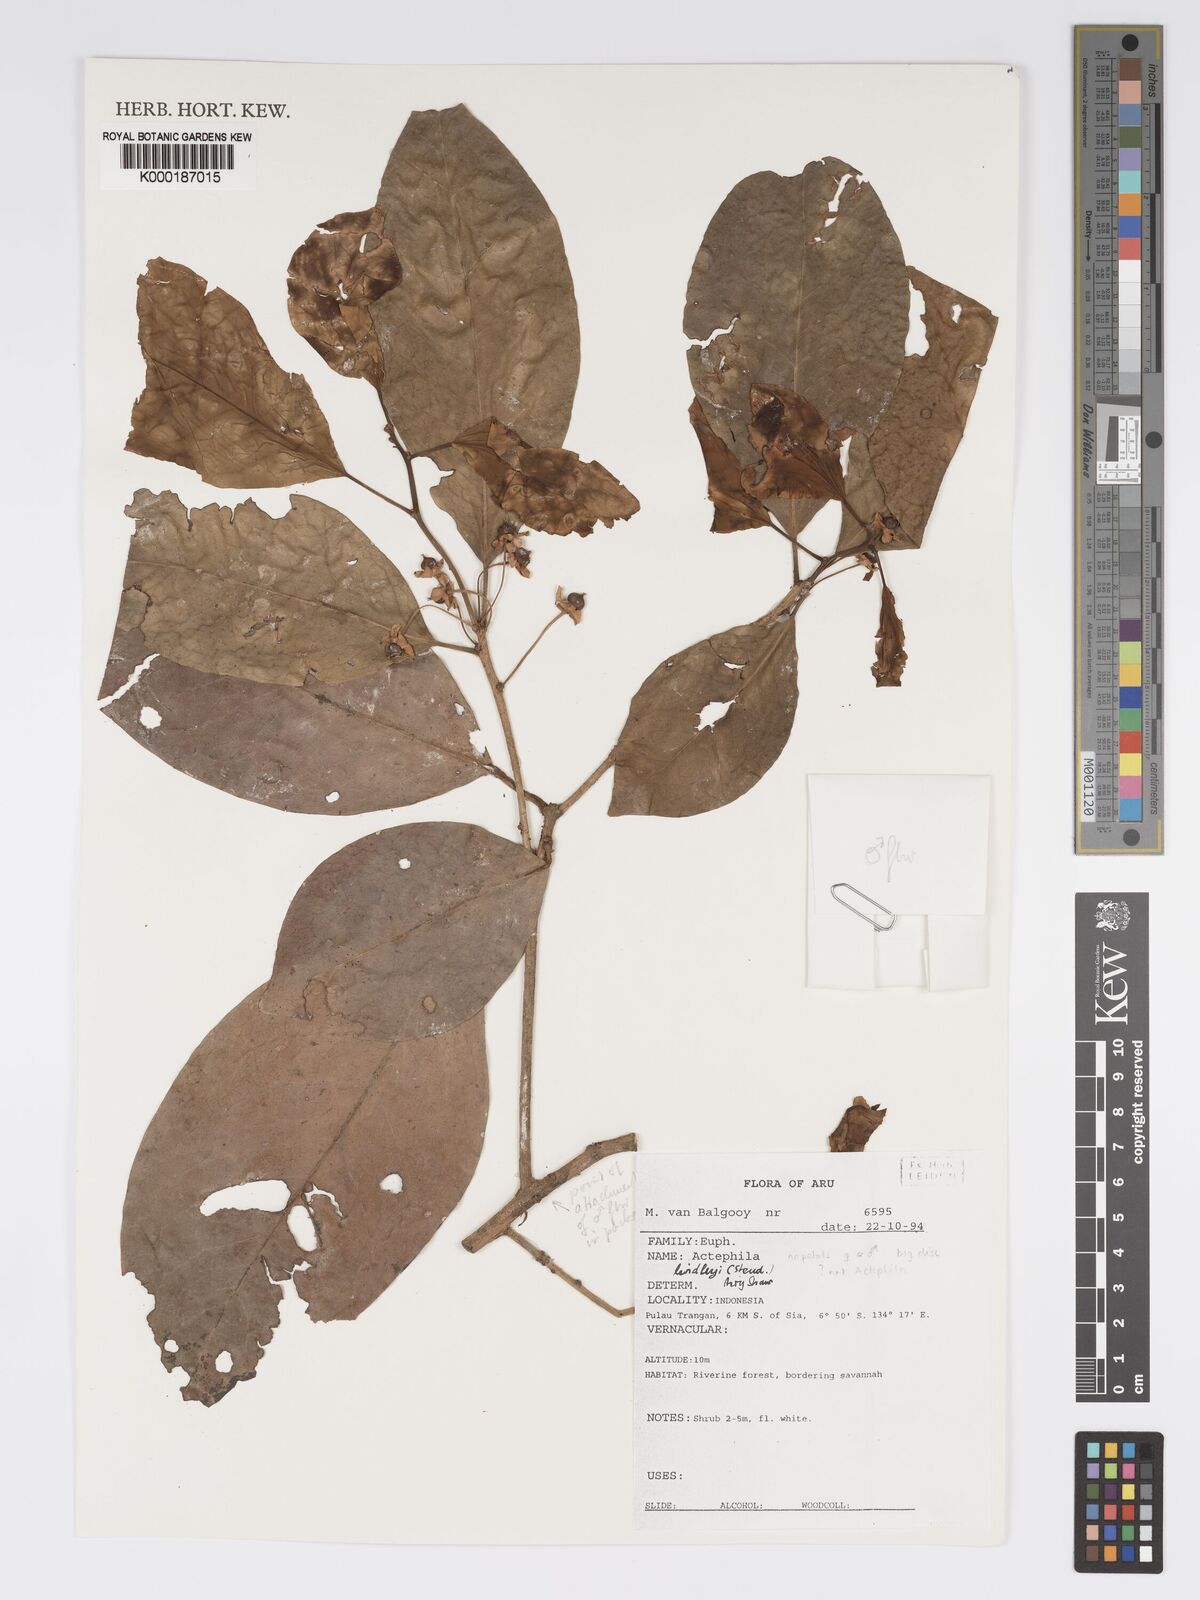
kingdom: Plantae
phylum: Tracheophyta
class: Magnoliopsida
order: Malpighiales
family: Phyllanthaceae
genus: Actephila
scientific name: Actephila lindleyi
